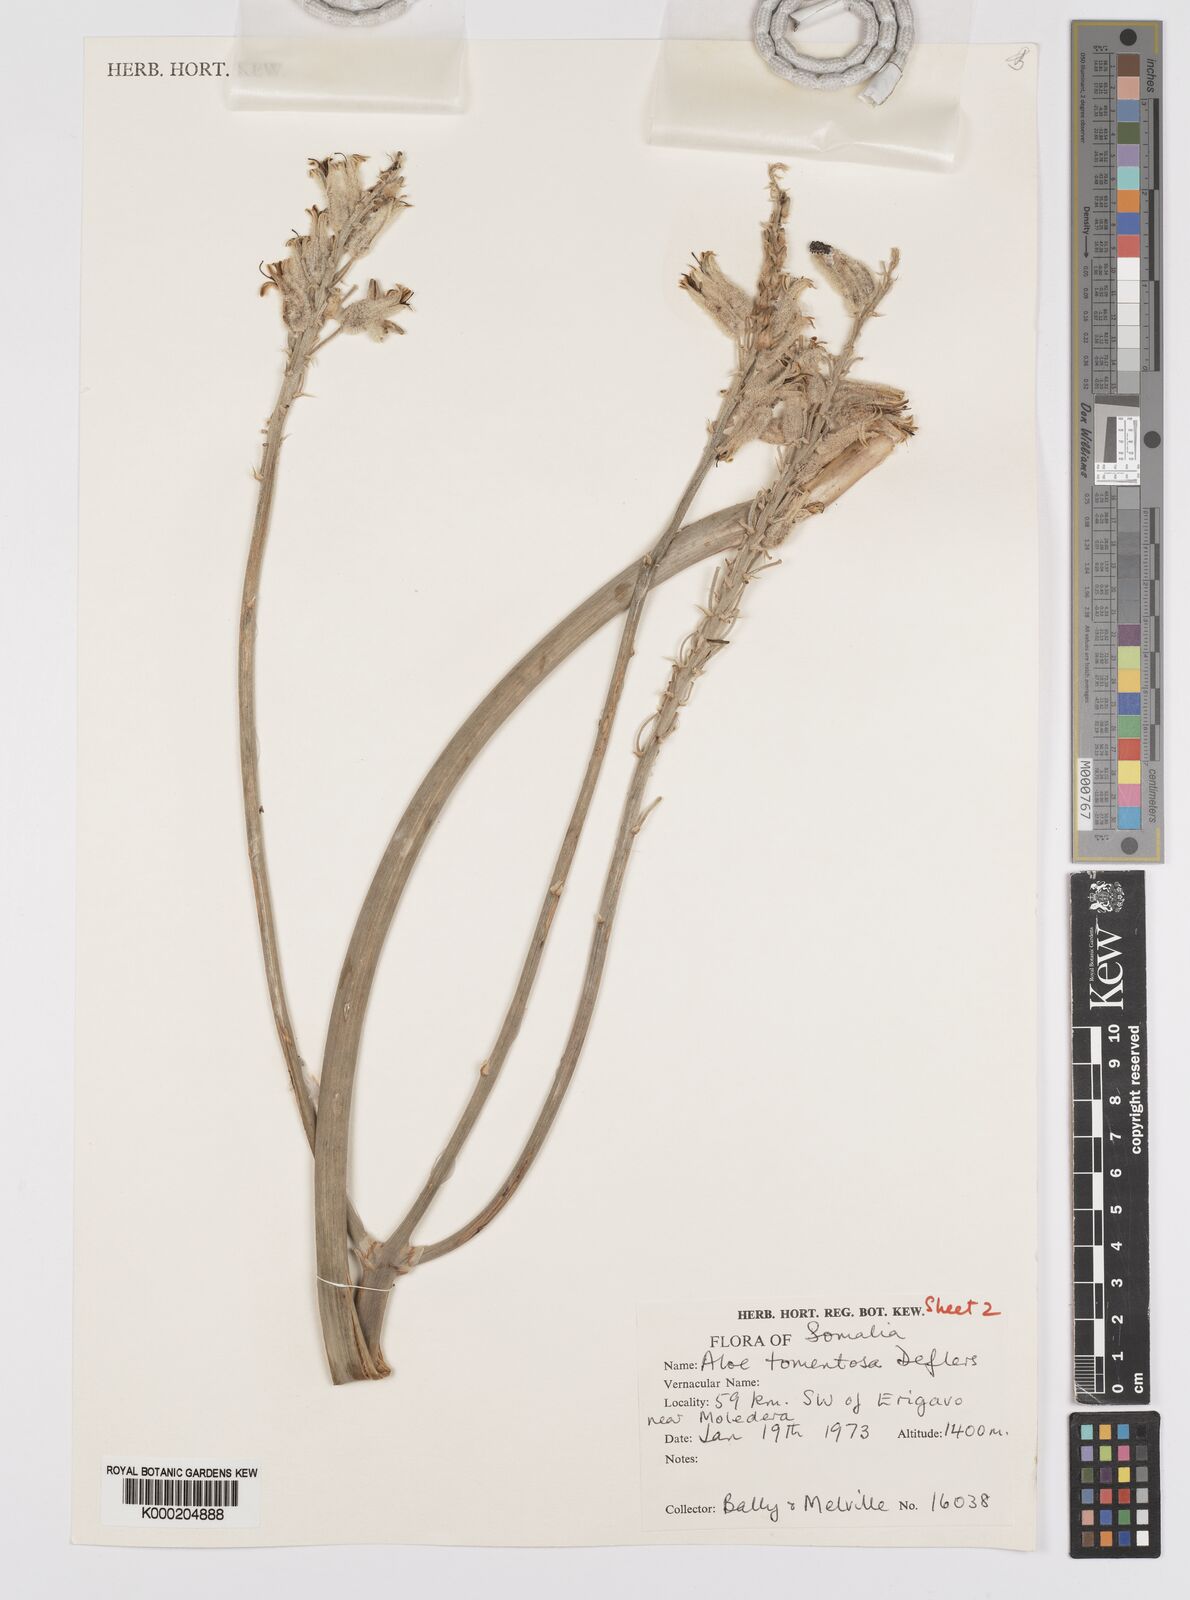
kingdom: Plantae
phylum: Tracheophyta
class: Liliopsida
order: Asparagales
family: Asphodelaceae
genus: Aloe
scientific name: Aloe molederana
